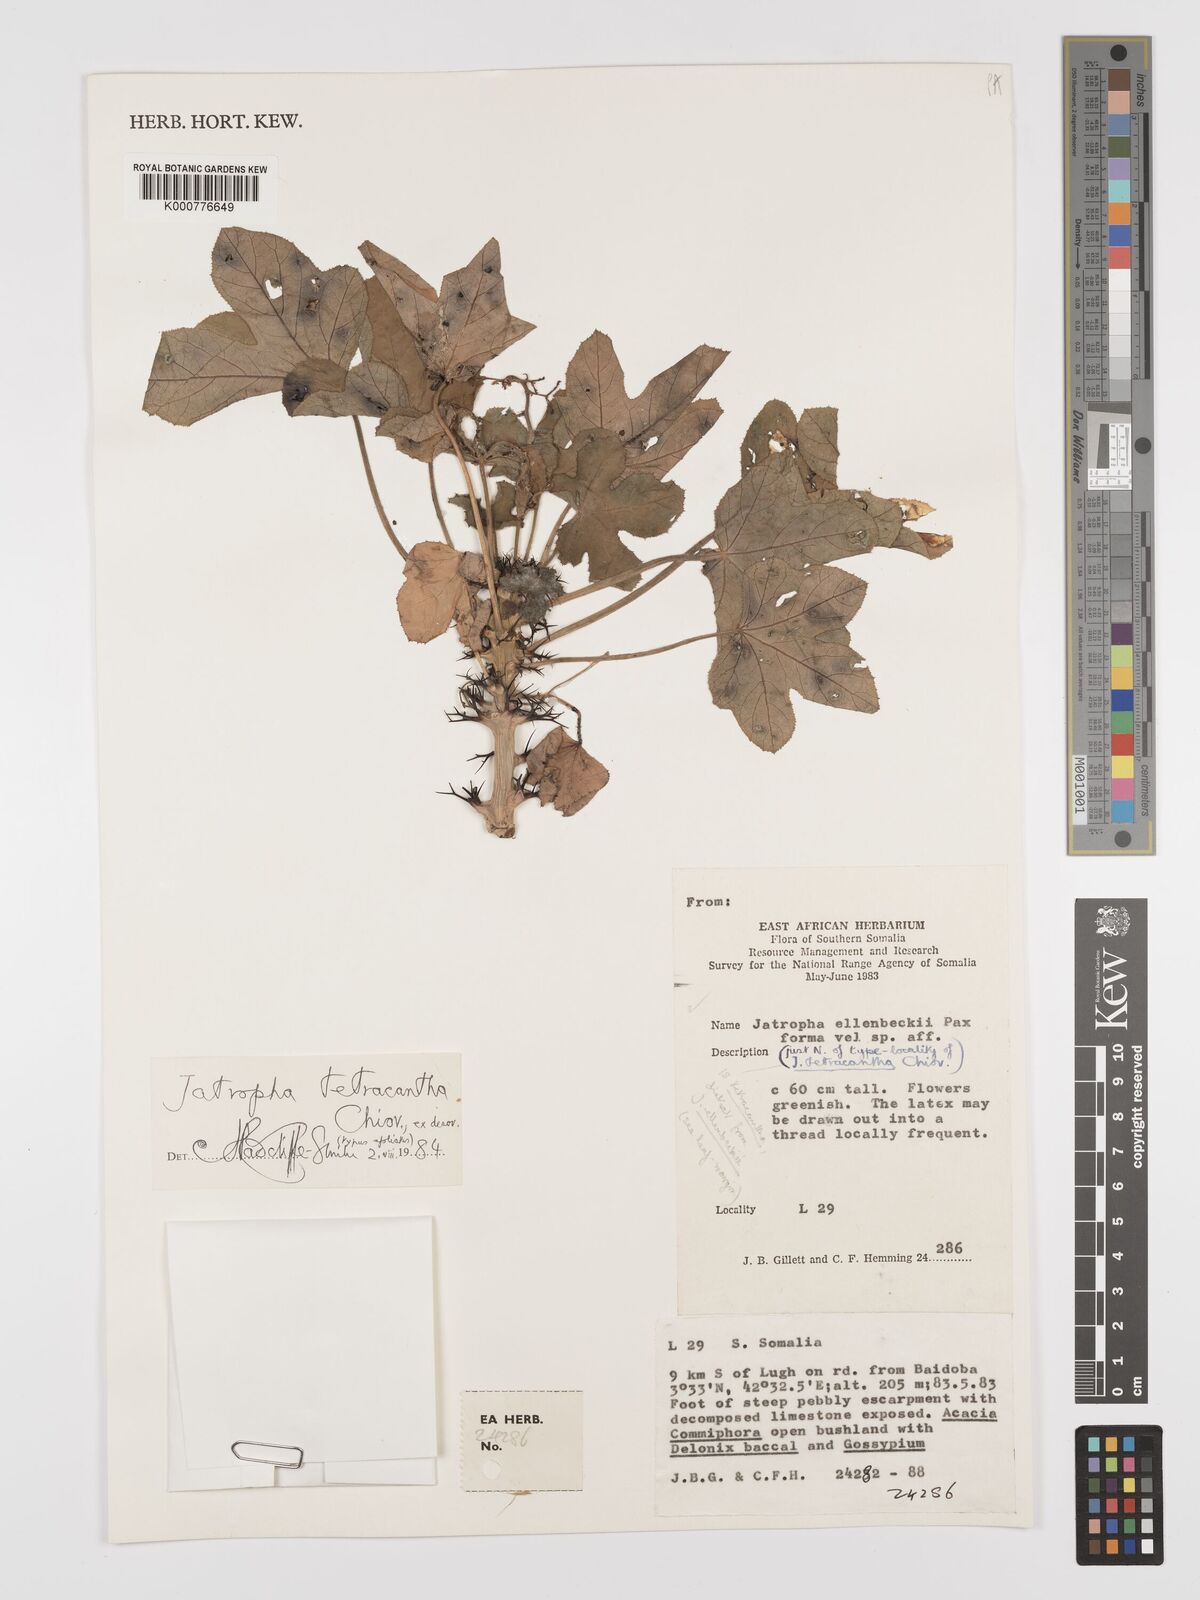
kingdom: Plantae
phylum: Tracheophyta
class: Magnoliopsida
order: Malpighiales
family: Euphorbiaceae
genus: Jatropha
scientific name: Jatropha tetracantha
